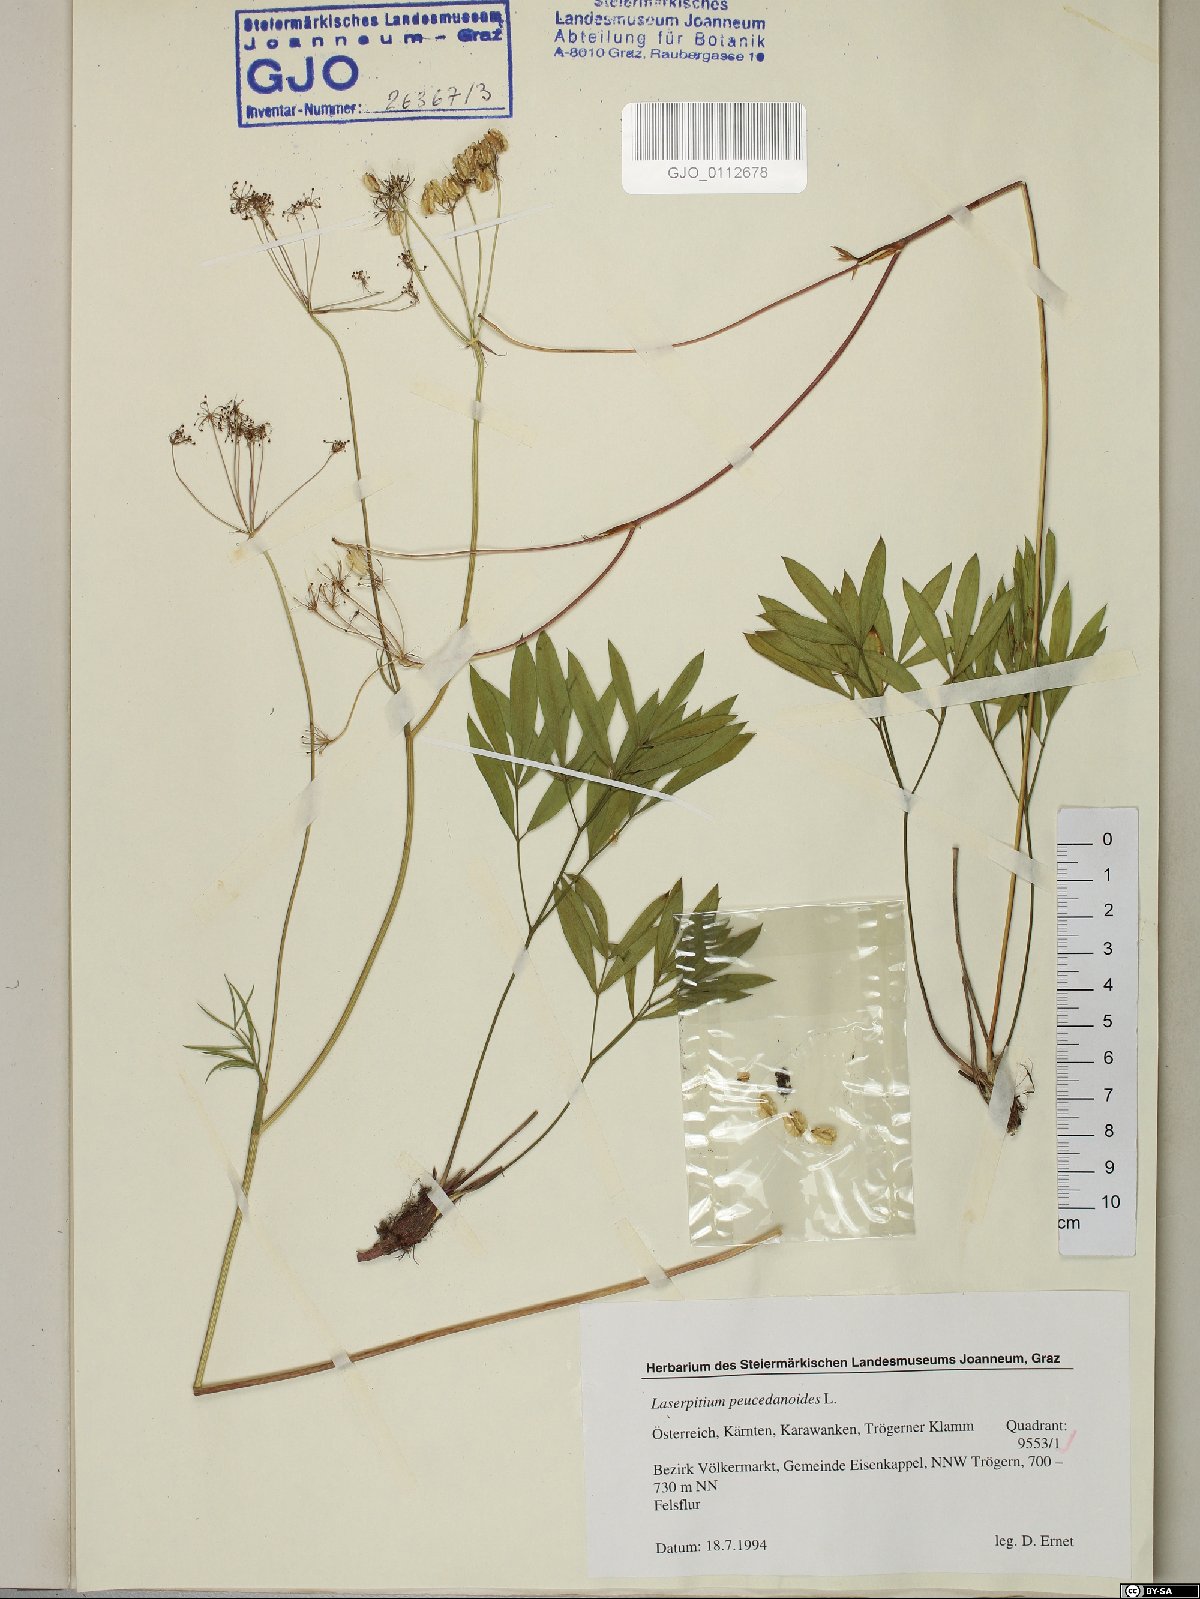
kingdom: Plantae
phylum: Tracheophyta
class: Magnoliopsida
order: Apiales
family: Apiaceae
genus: Laserpitium
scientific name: Laserpitium peucedanoides
